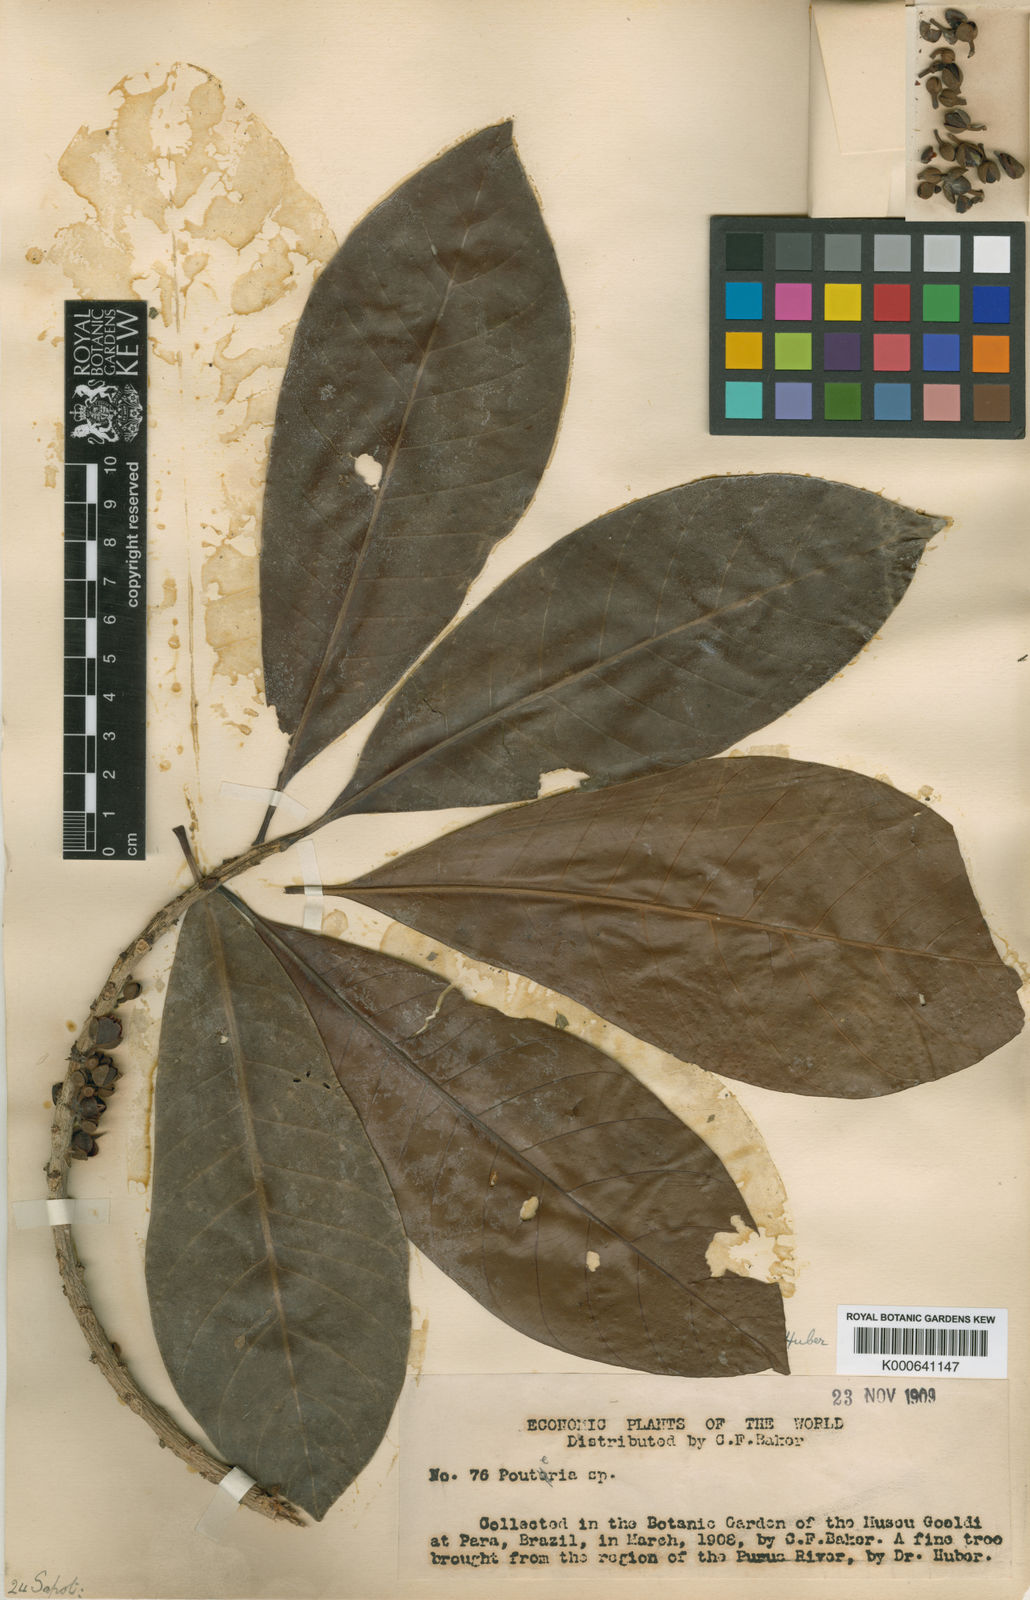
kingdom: Plantae
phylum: Tracheophyta
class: Magnoliopsida
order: Ericales
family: Sapotaceae
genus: Pouteria
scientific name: Pouteria macrocarpa
